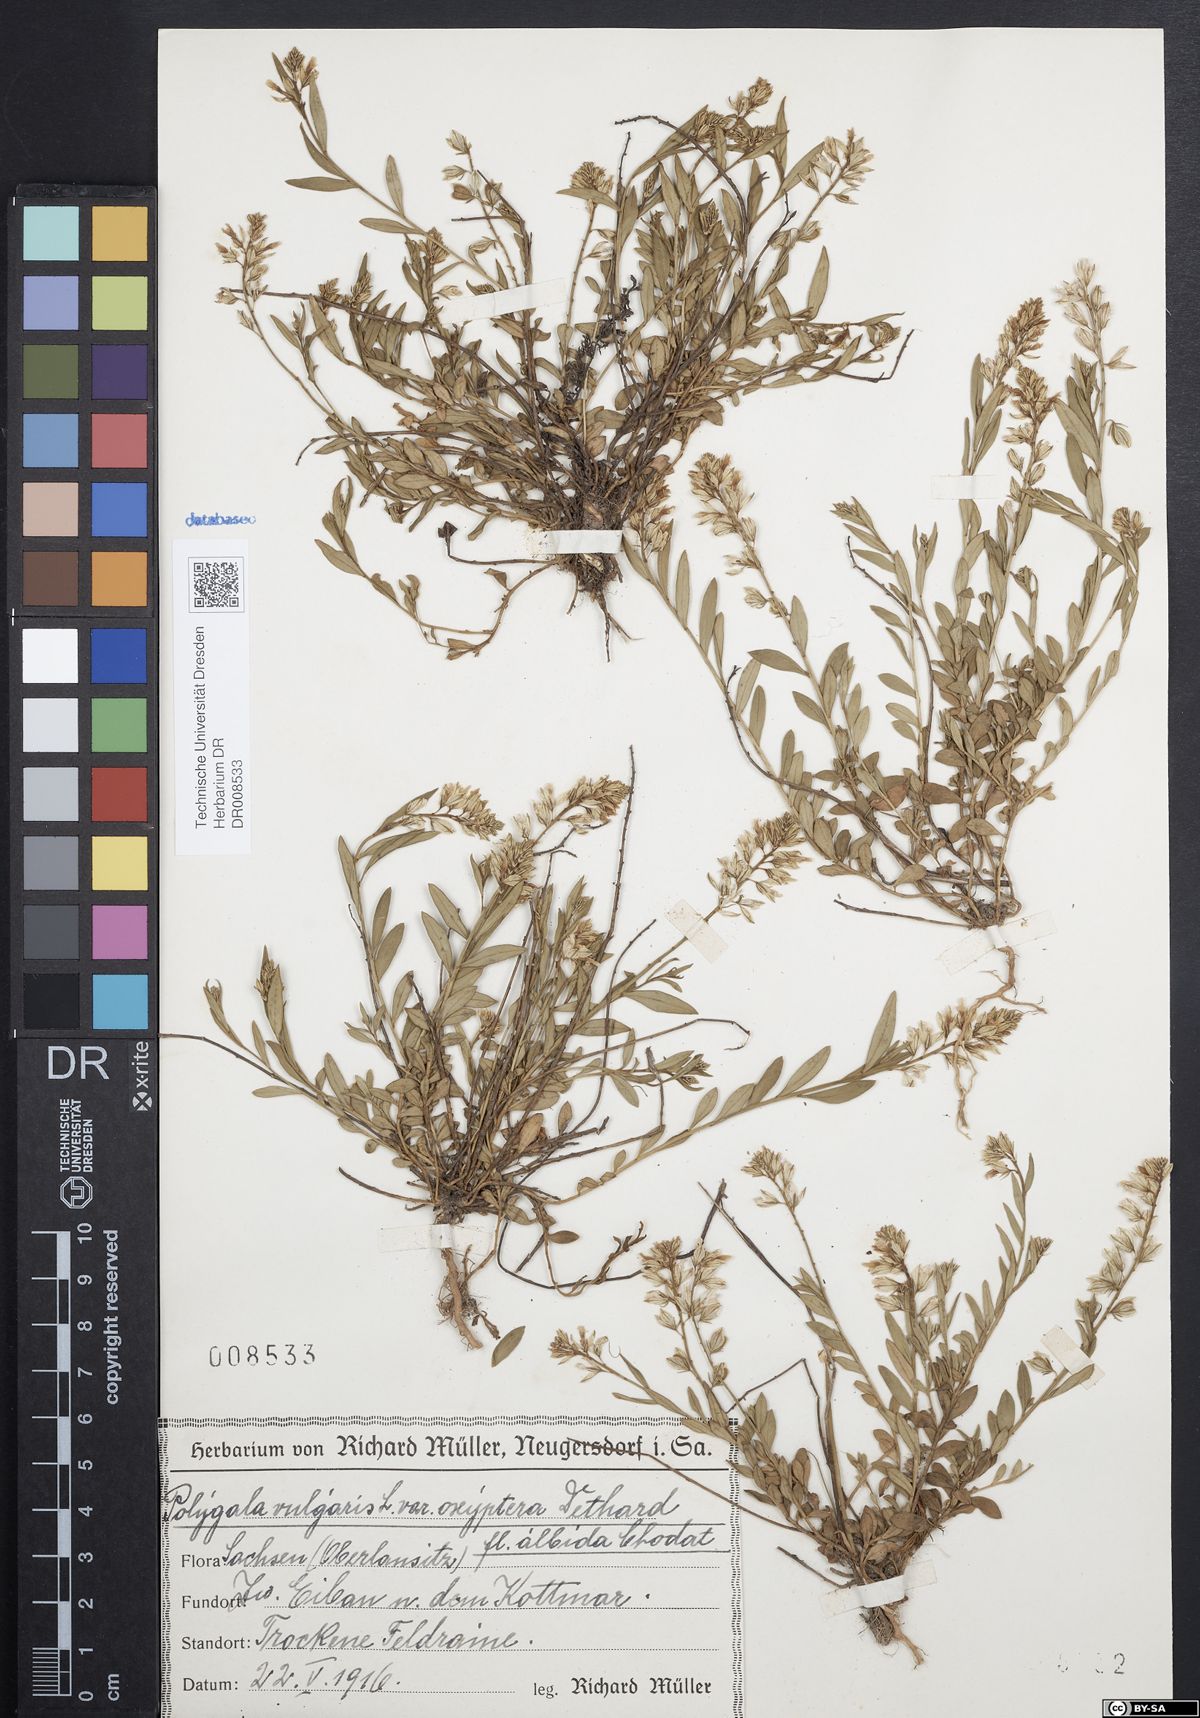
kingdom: Plantae
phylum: Tracheophyta
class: Magnoliopsida
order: Fabales
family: Polygalaceae
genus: Polygala
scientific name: Polygala vulgaris
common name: Common milkwort
